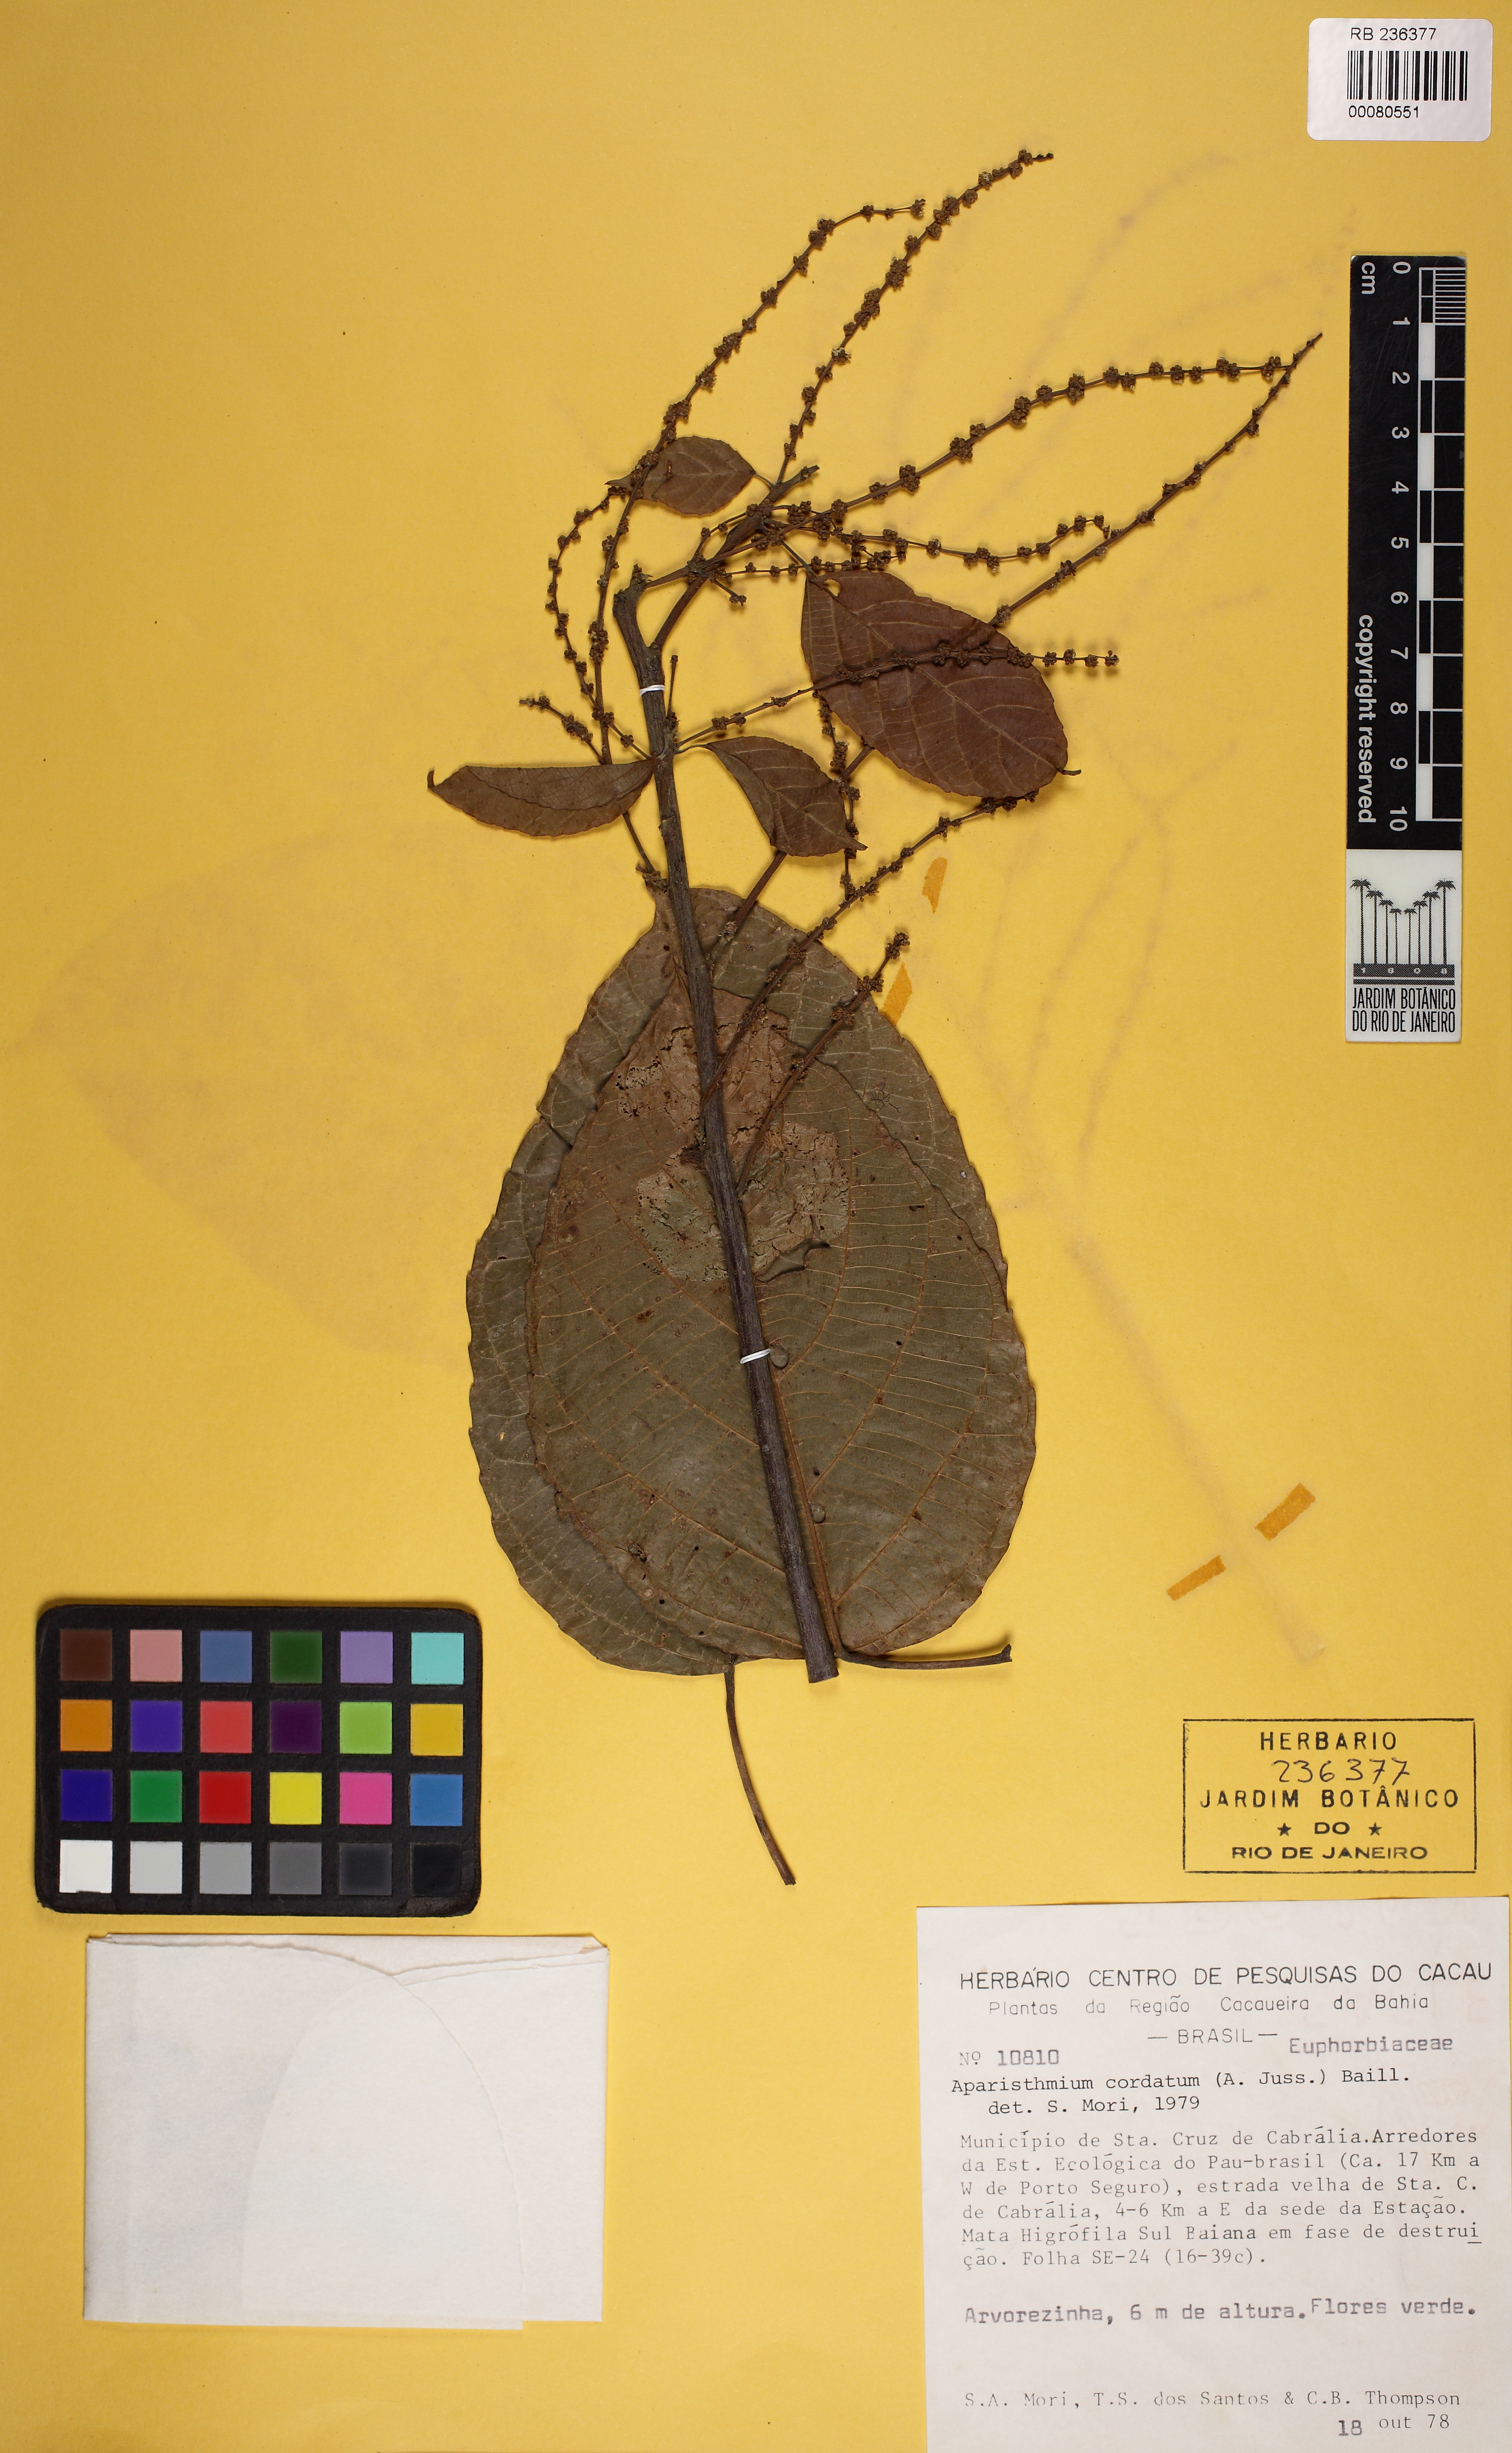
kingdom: Plantae
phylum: Tracheophyta
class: Magnoliopsida
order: Malpighiales
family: Euphorbiaceae
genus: Aparisthmium
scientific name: Aparisthmium cordatum
